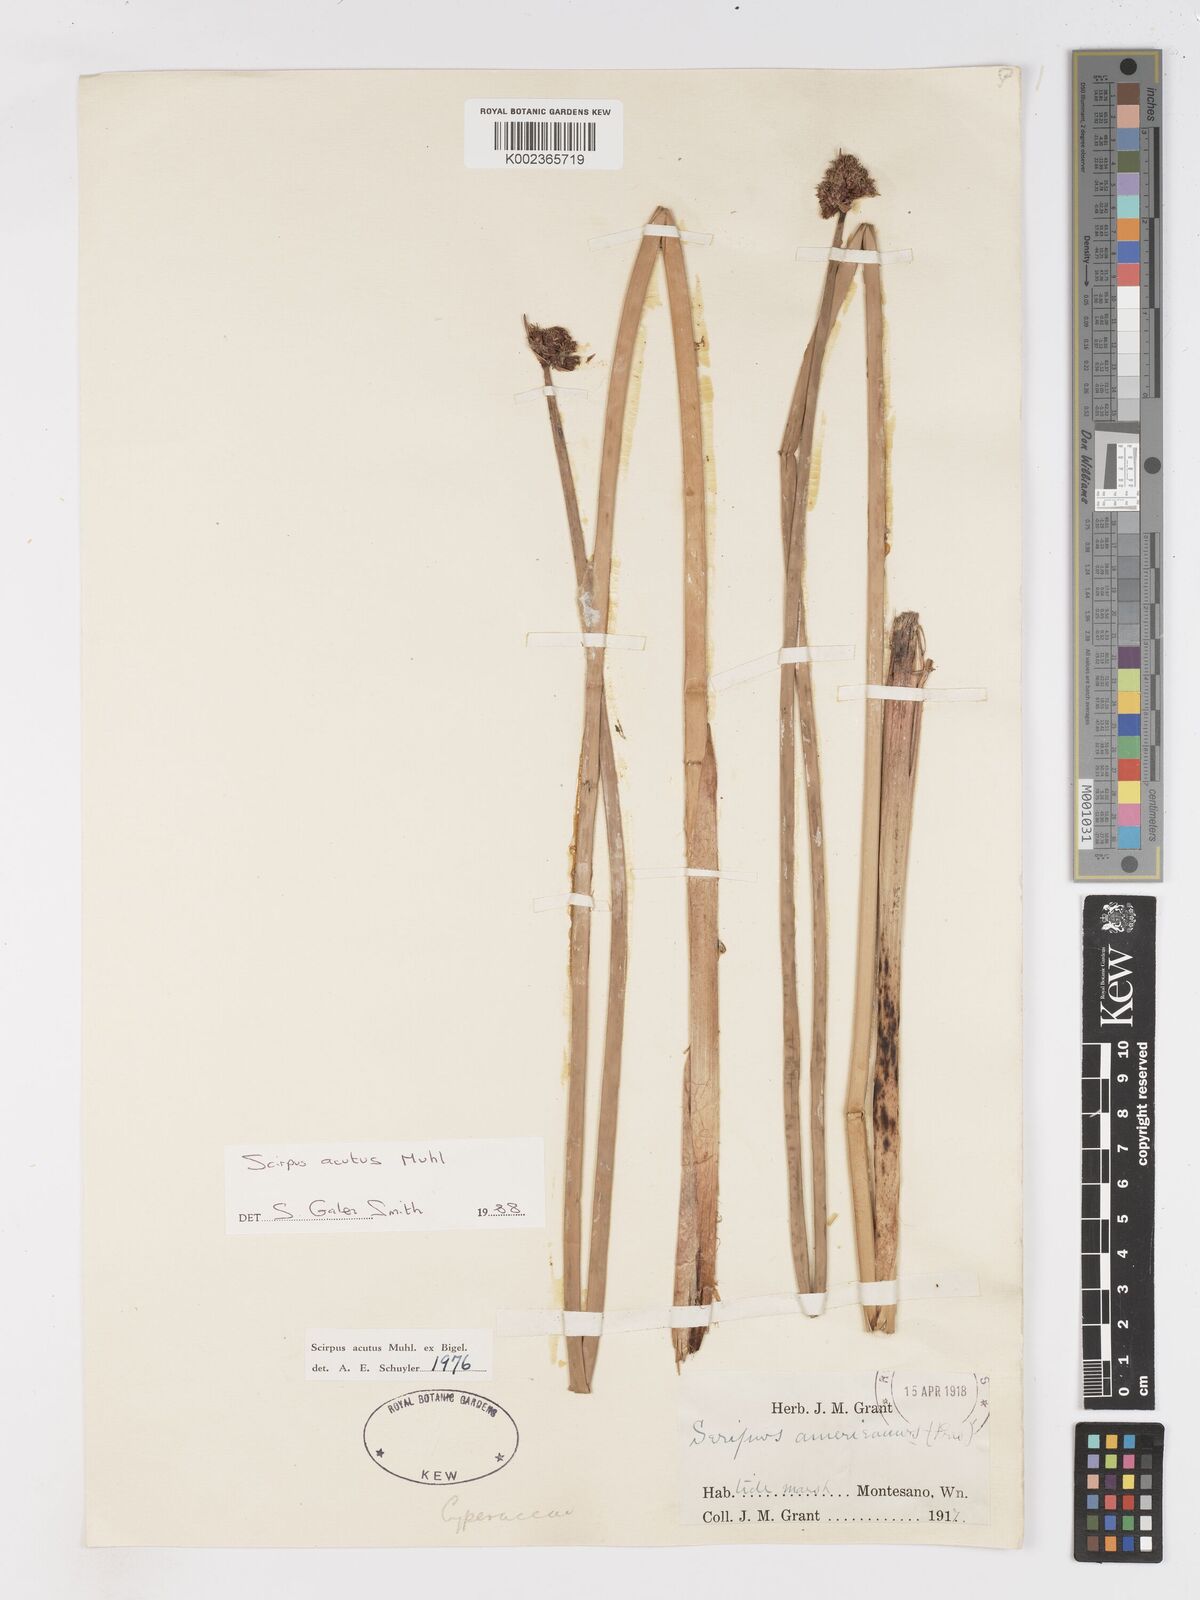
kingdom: Plantae
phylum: Tracheophyta
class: Liliopsida
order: Poales
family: Cyperaceae
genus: Schoenoplectus
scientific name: Schoenoplectus lacustris
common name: Common club-rush
